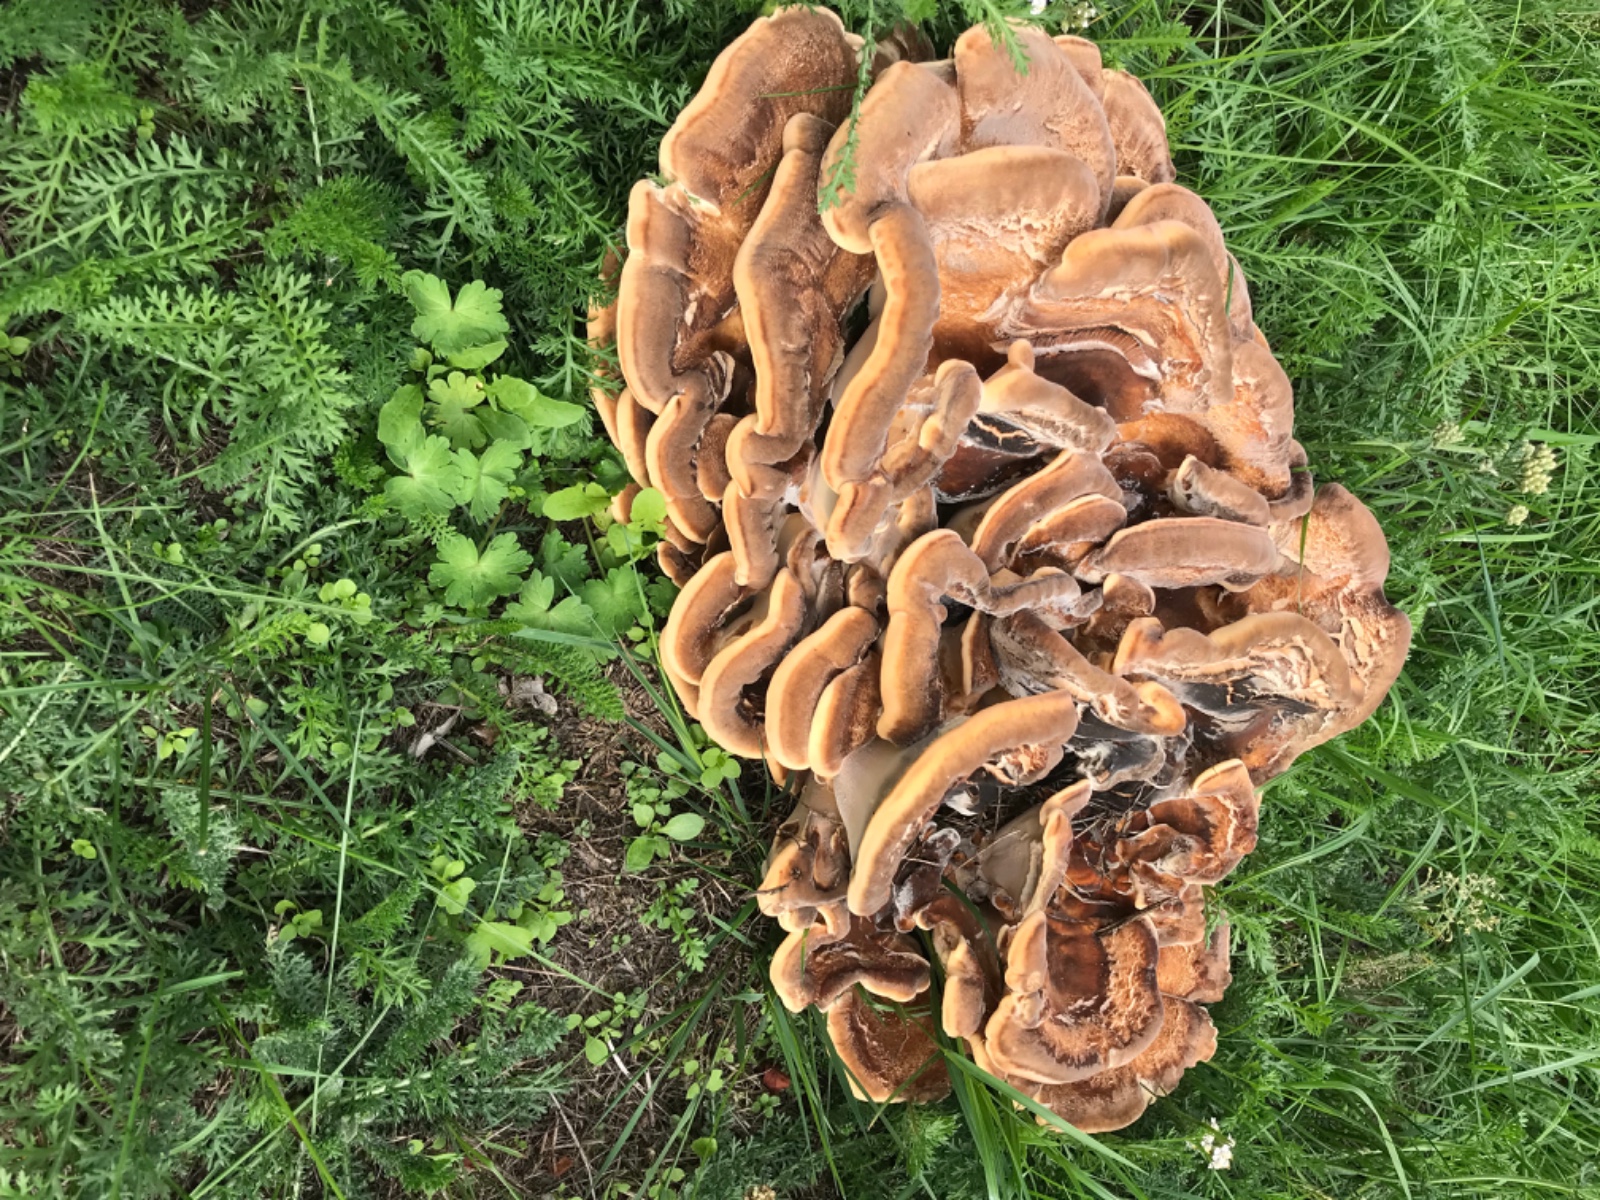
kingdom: Fungi
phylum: Basidiomycota
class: Agaricomycetes
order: Polyporales
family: Meripilaceae
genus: Meripilus
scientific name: Meripilus giganteus
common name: kæmpeporesvamp
